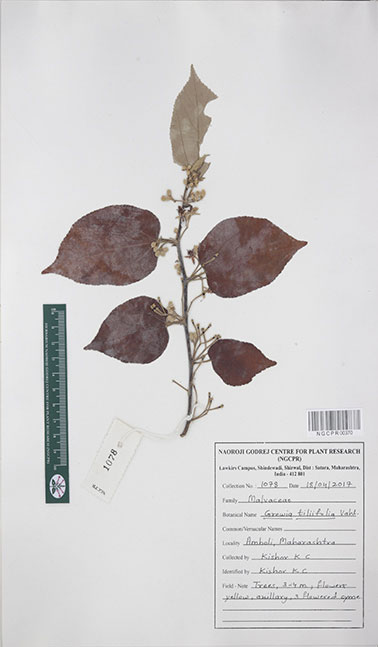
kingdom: Plantae
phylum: Tracheophyta
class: Magnoliopsida
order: Malvales
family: Malvaceae
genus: Grewia
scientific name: Grewia tiliifolia
